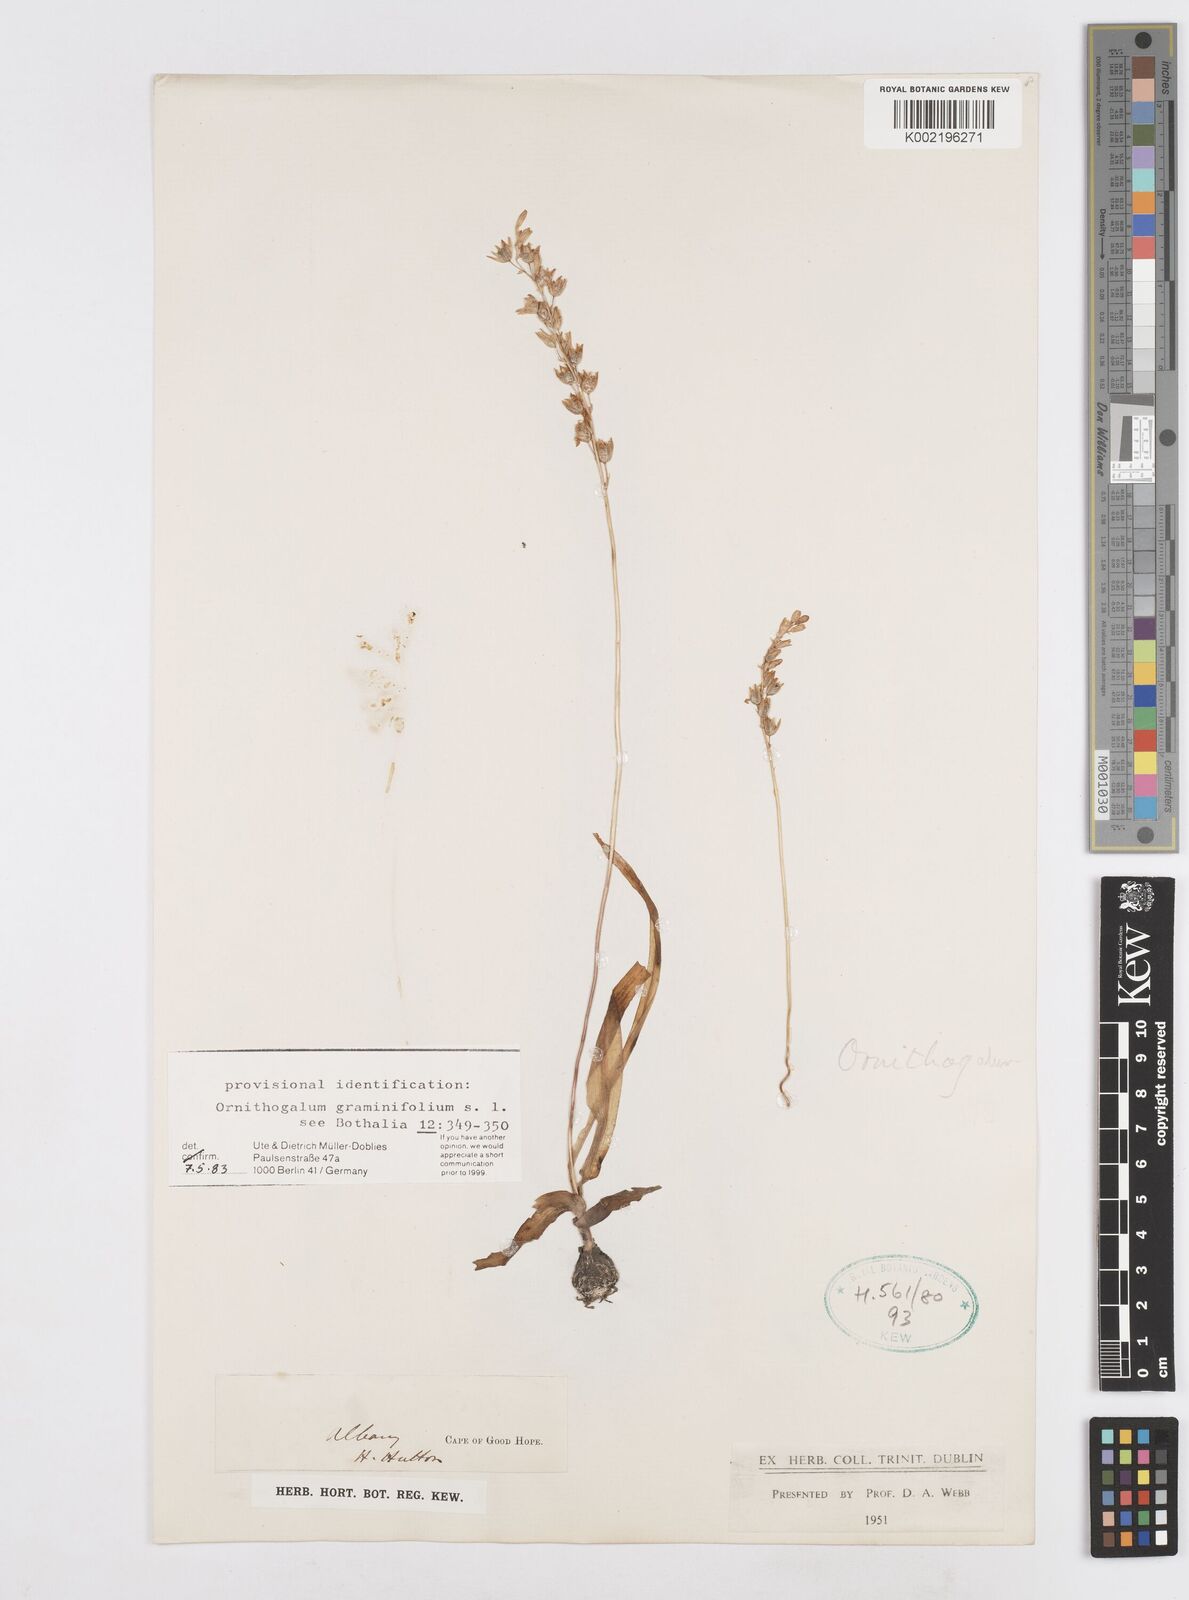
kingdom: Plantae
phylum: Tracheophyta
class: Liliopsida
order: Asparagales
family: Asparagaceae
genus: Ornithogalum
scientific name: Ornithogalum graminifolium
